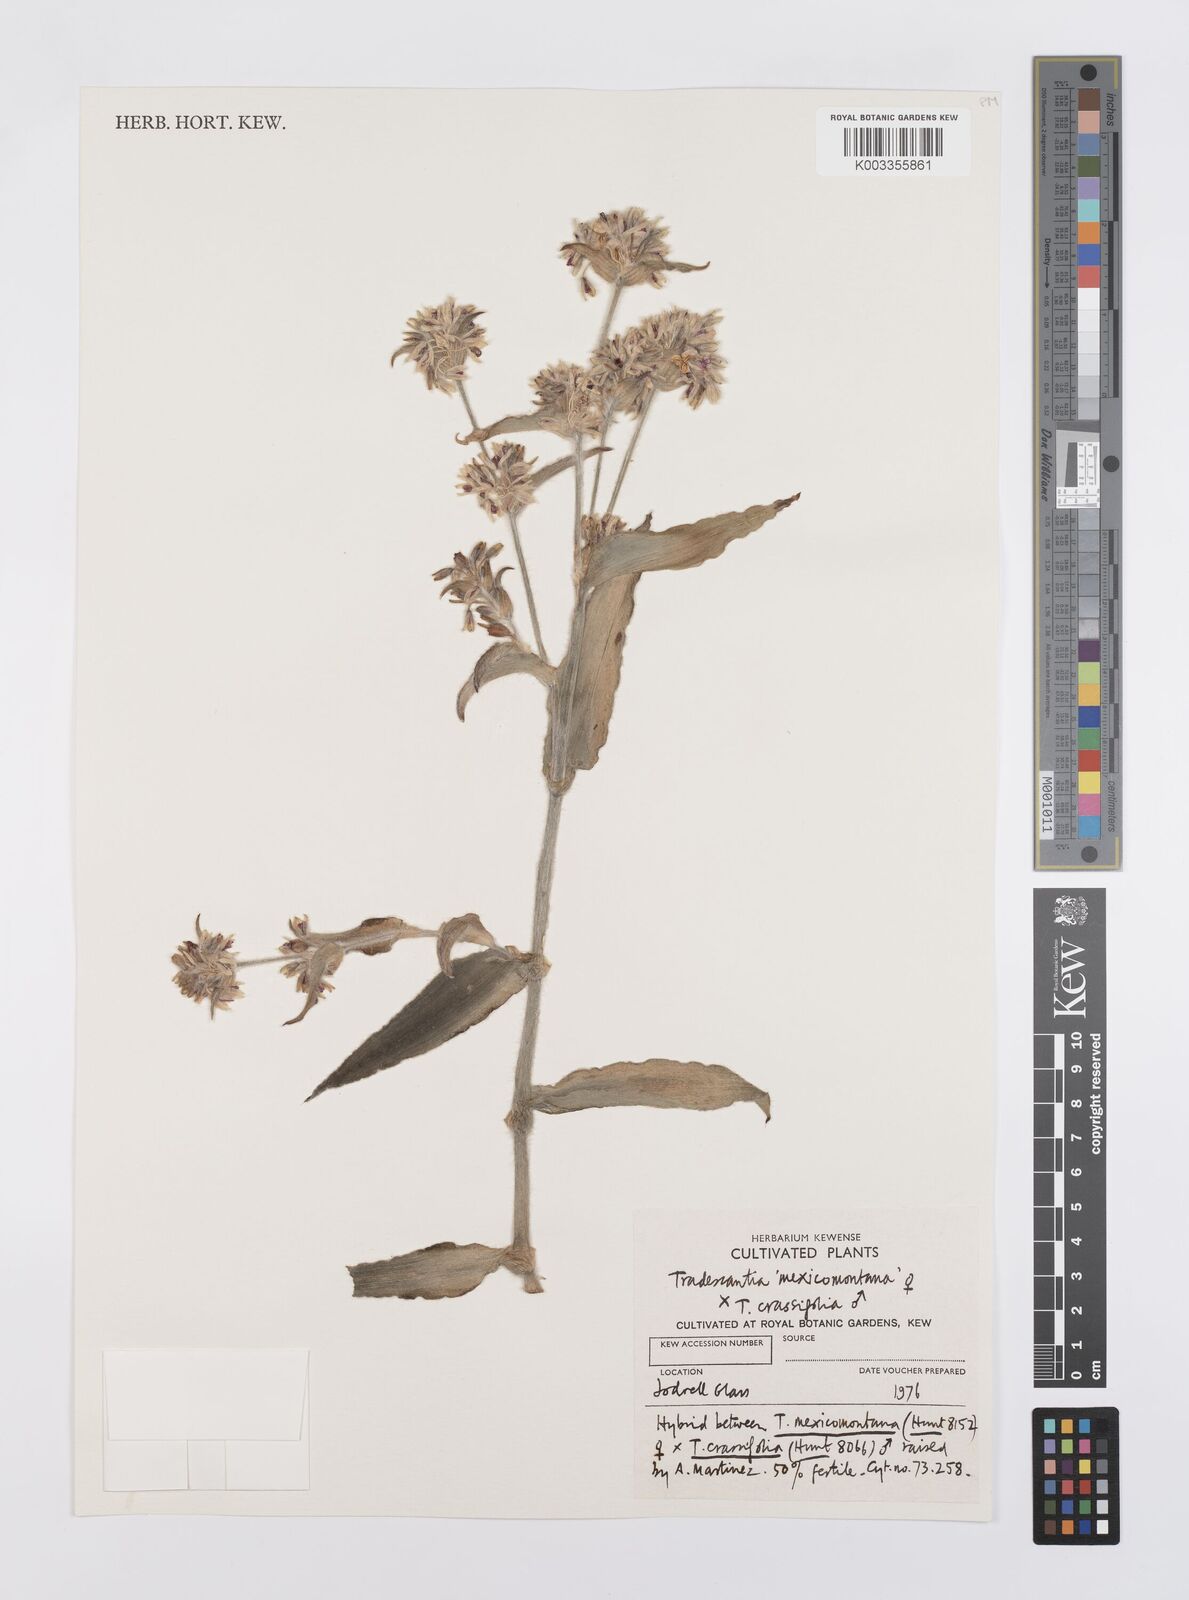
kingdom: Plantae
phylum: Tracheophyta
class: Liliopsida
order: Commelinales
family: Commelinaceae
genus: Tradescantia
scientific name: Tradescantia crassifolia
